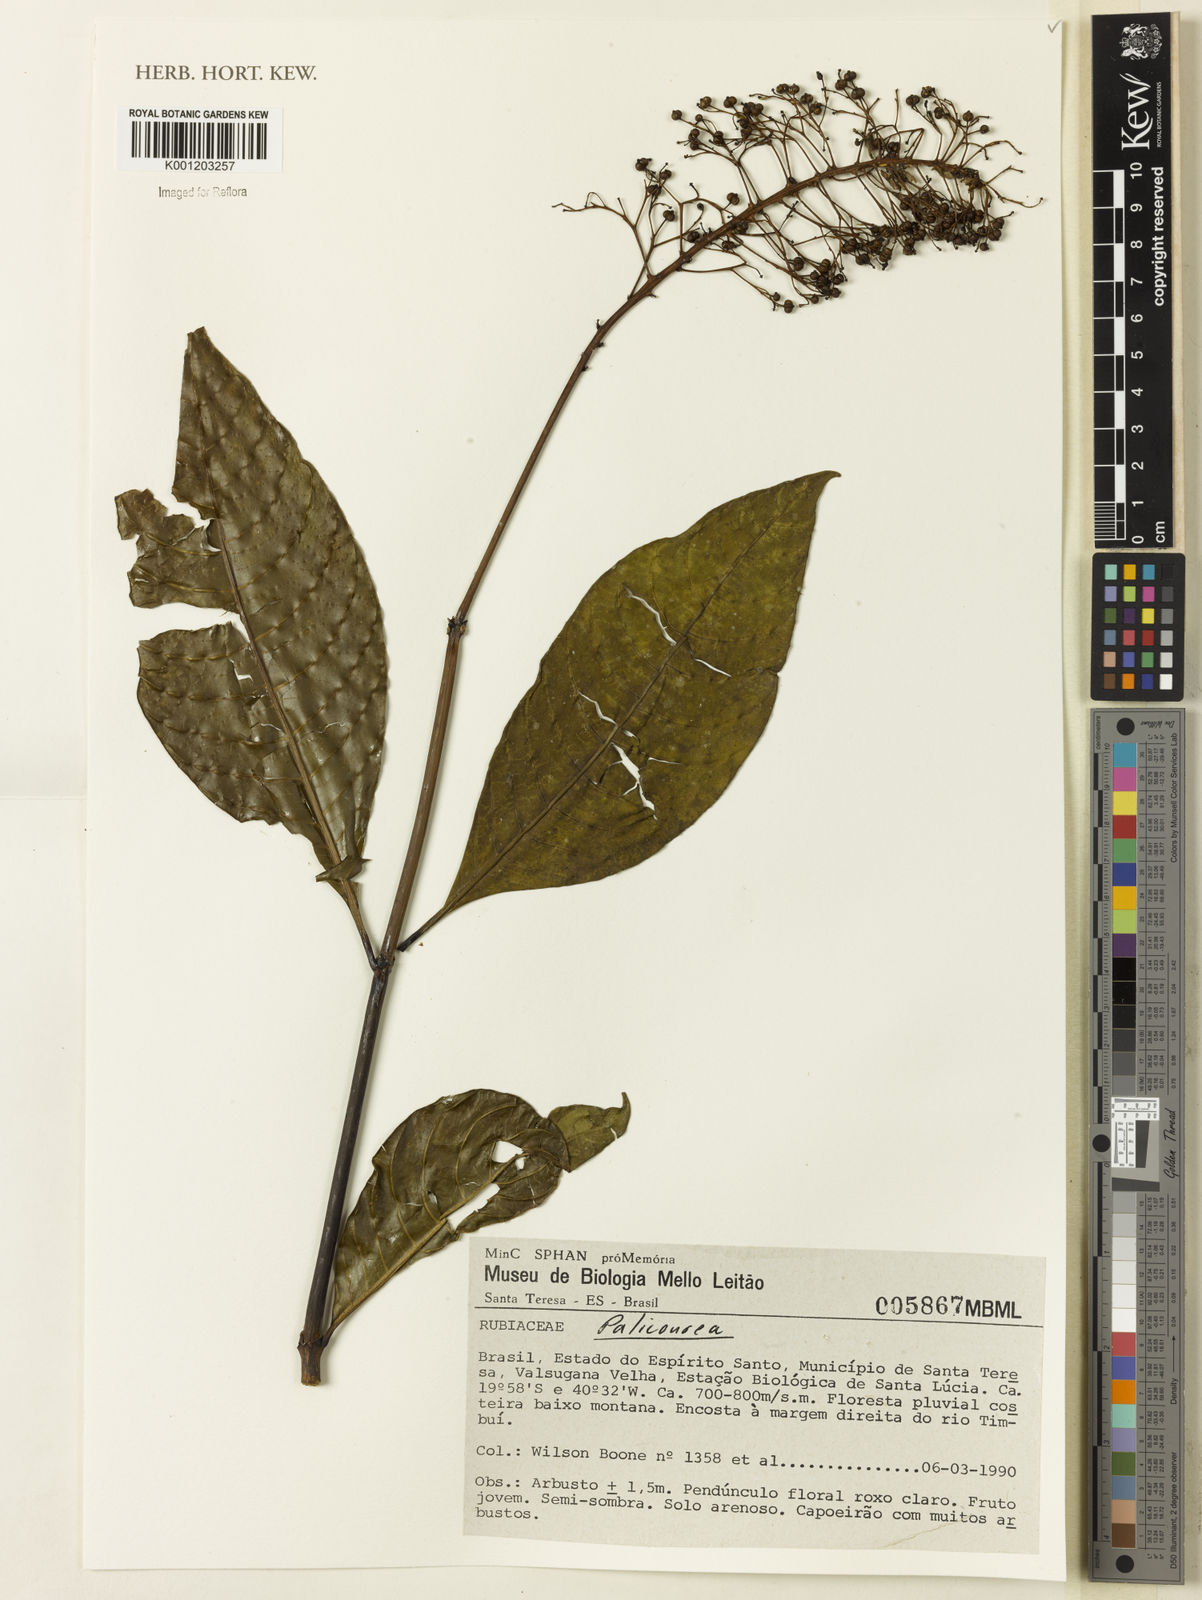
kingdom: Plantae
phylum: Tracheophyta
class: Magnoliopsida
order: Gentianales
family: Rubiaceae
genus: Palicourea
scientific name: Palicourea
